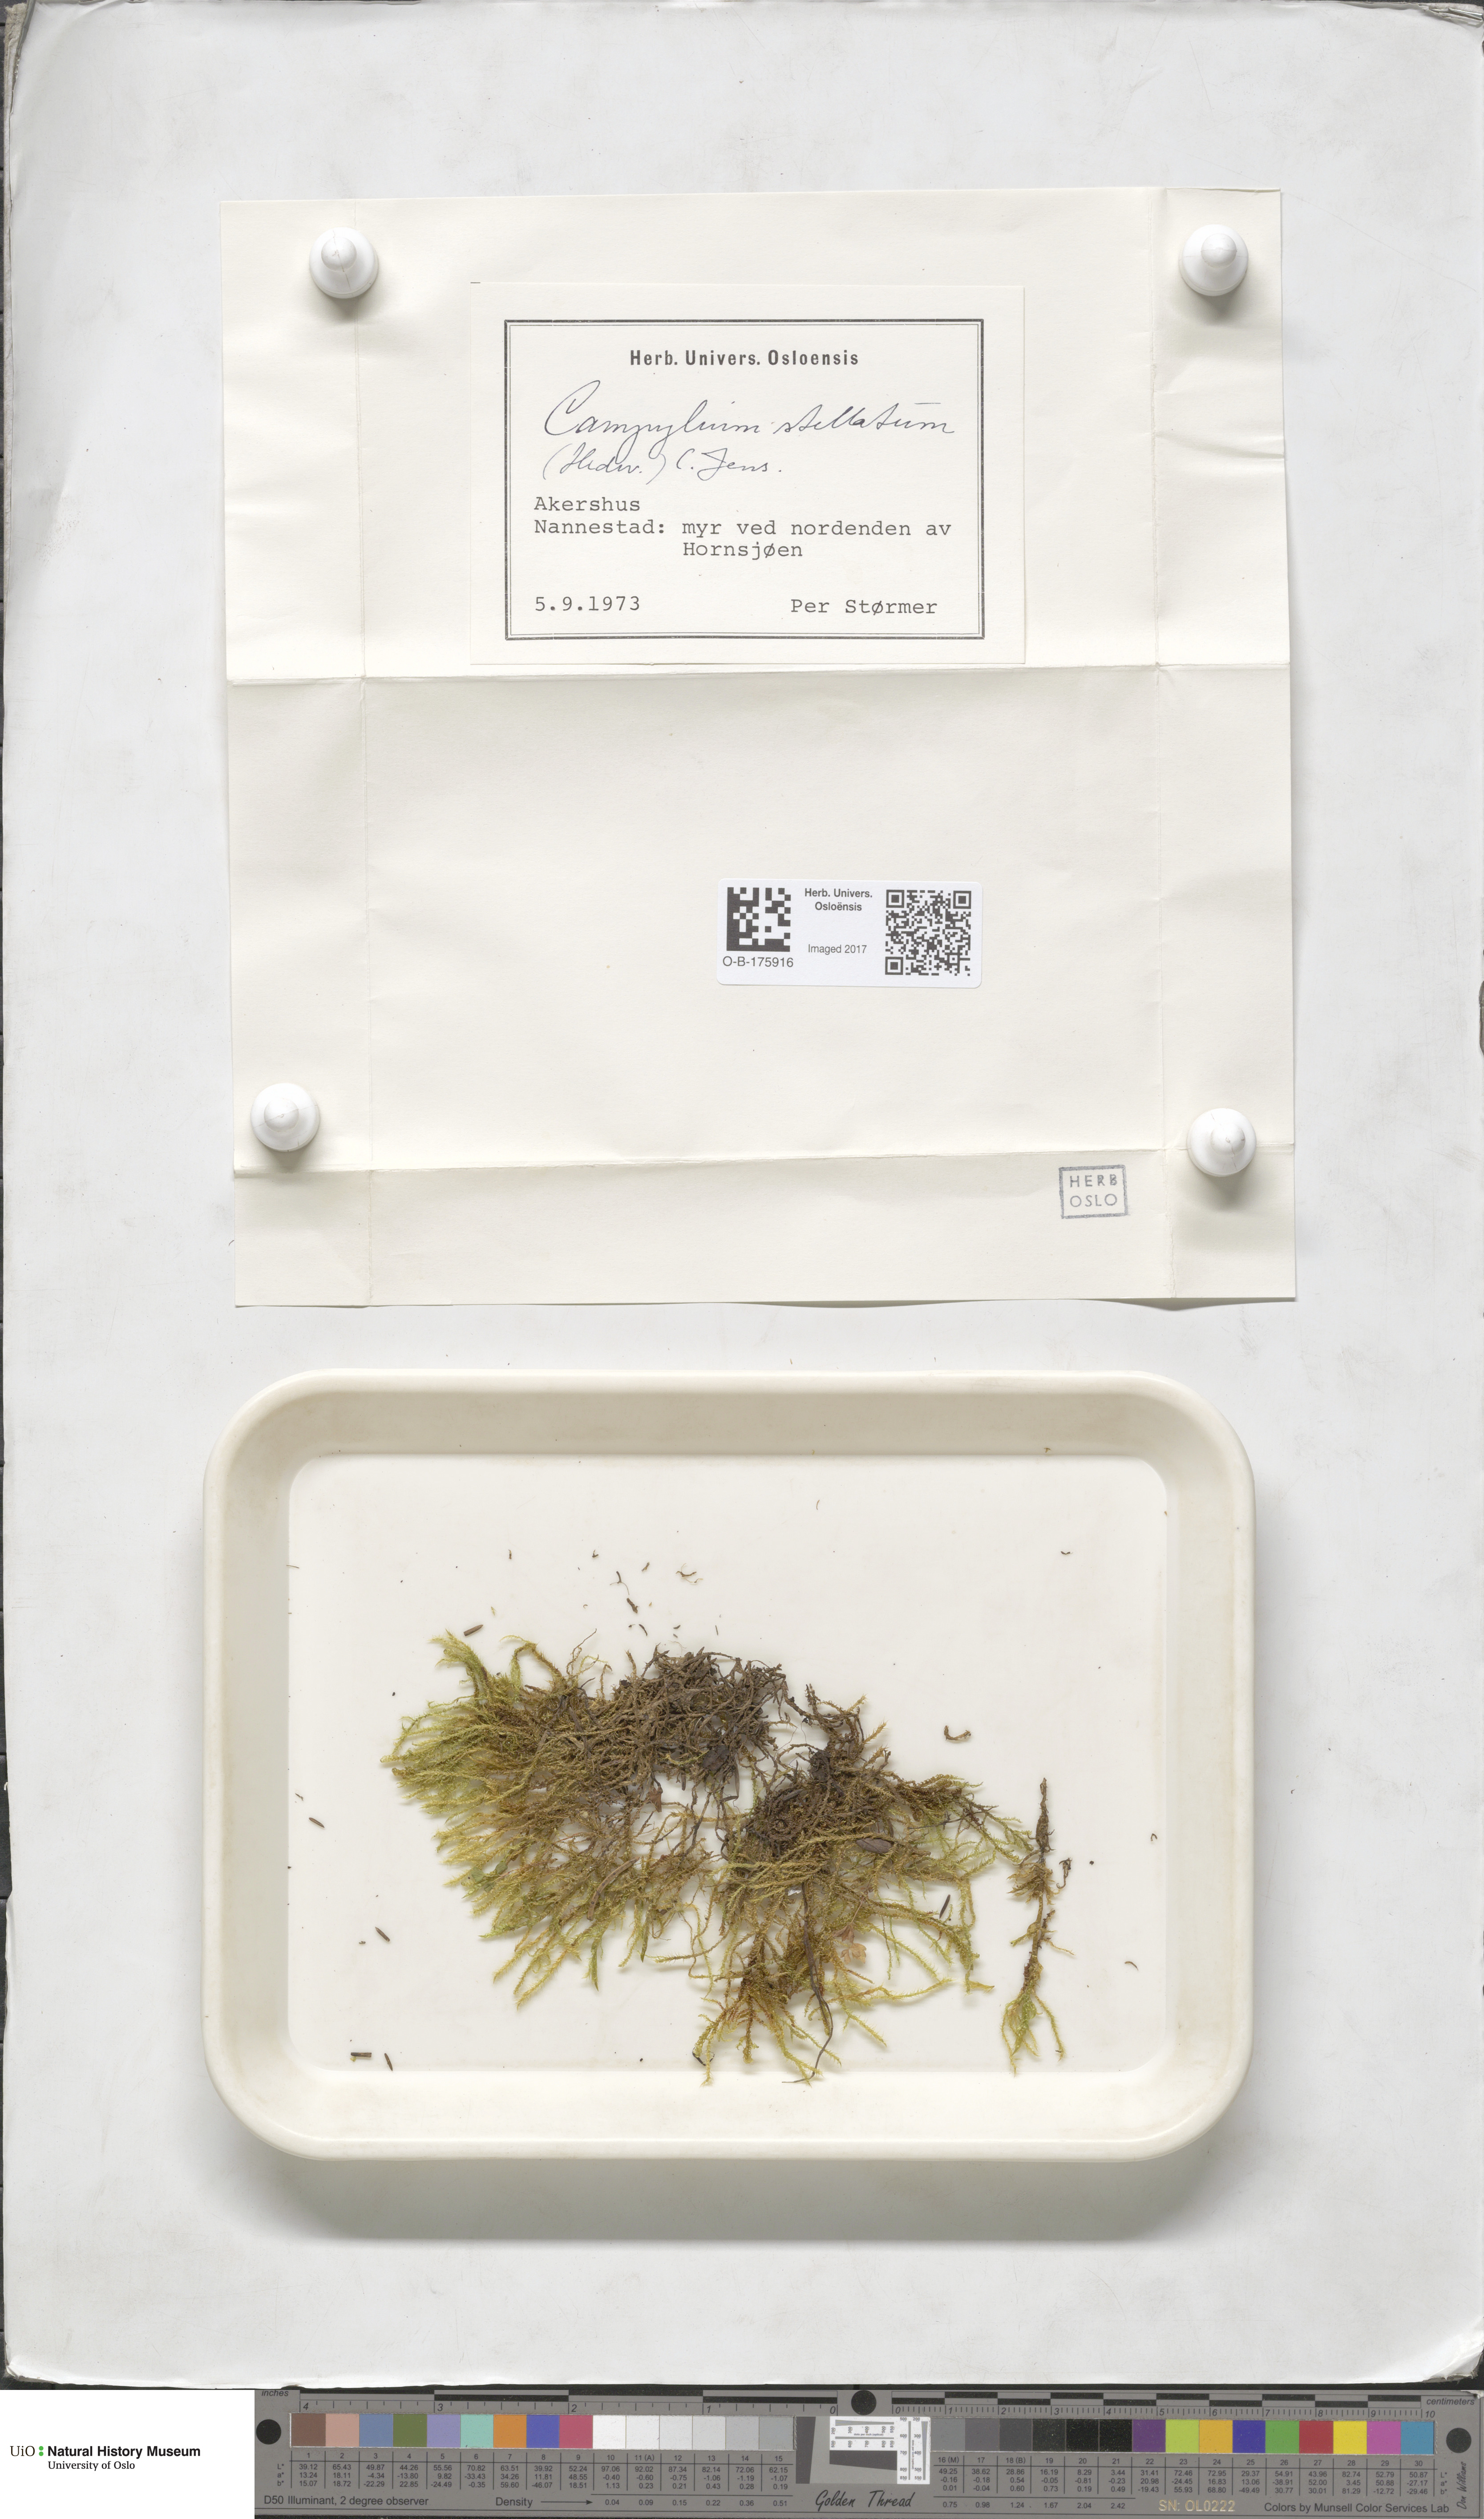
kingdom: Plantae
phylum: Bryophyta
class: Bryopsida
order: Hypnales
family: Amblystegiaceae
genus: Campylium
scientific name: Campylium stellatum
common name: Yellow starry fen moss
